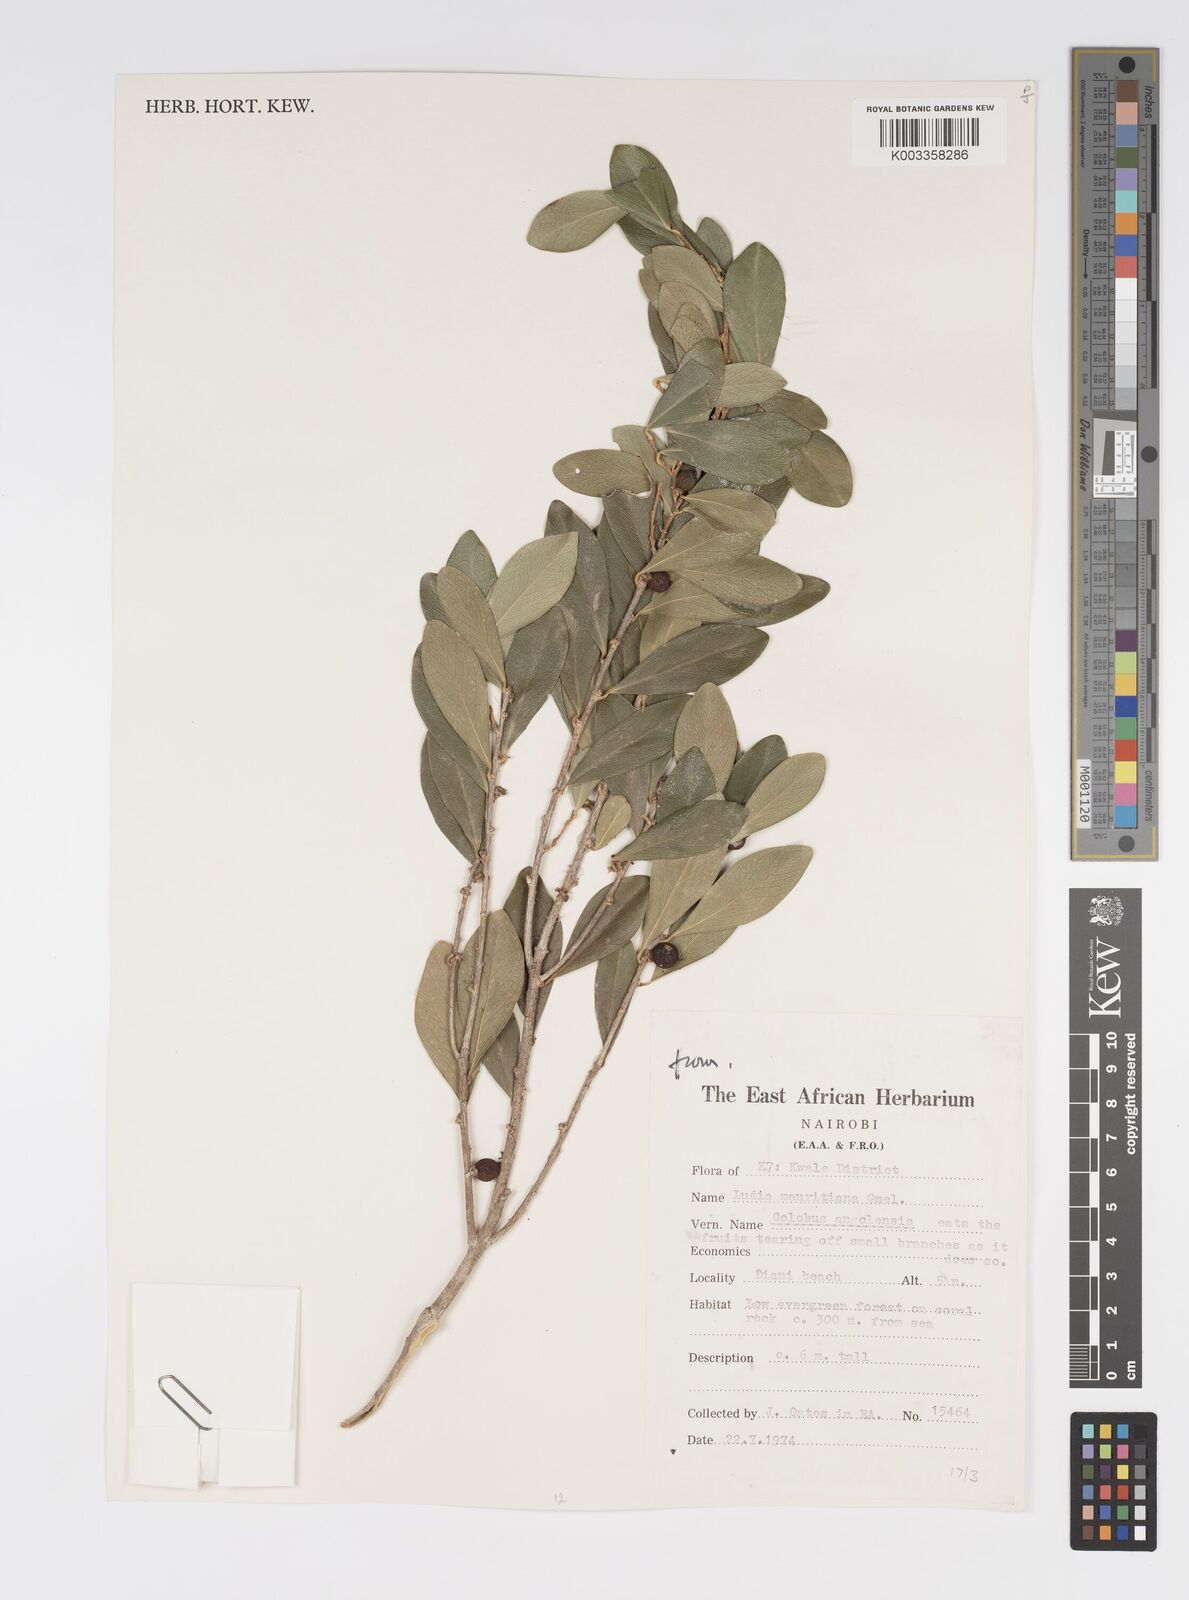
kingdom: Plantae
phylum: Tracheophyta
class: Magnoliopsida
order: Malpighiales
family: Salicaceae
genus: Ludia
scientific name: Ludia mauritiana
